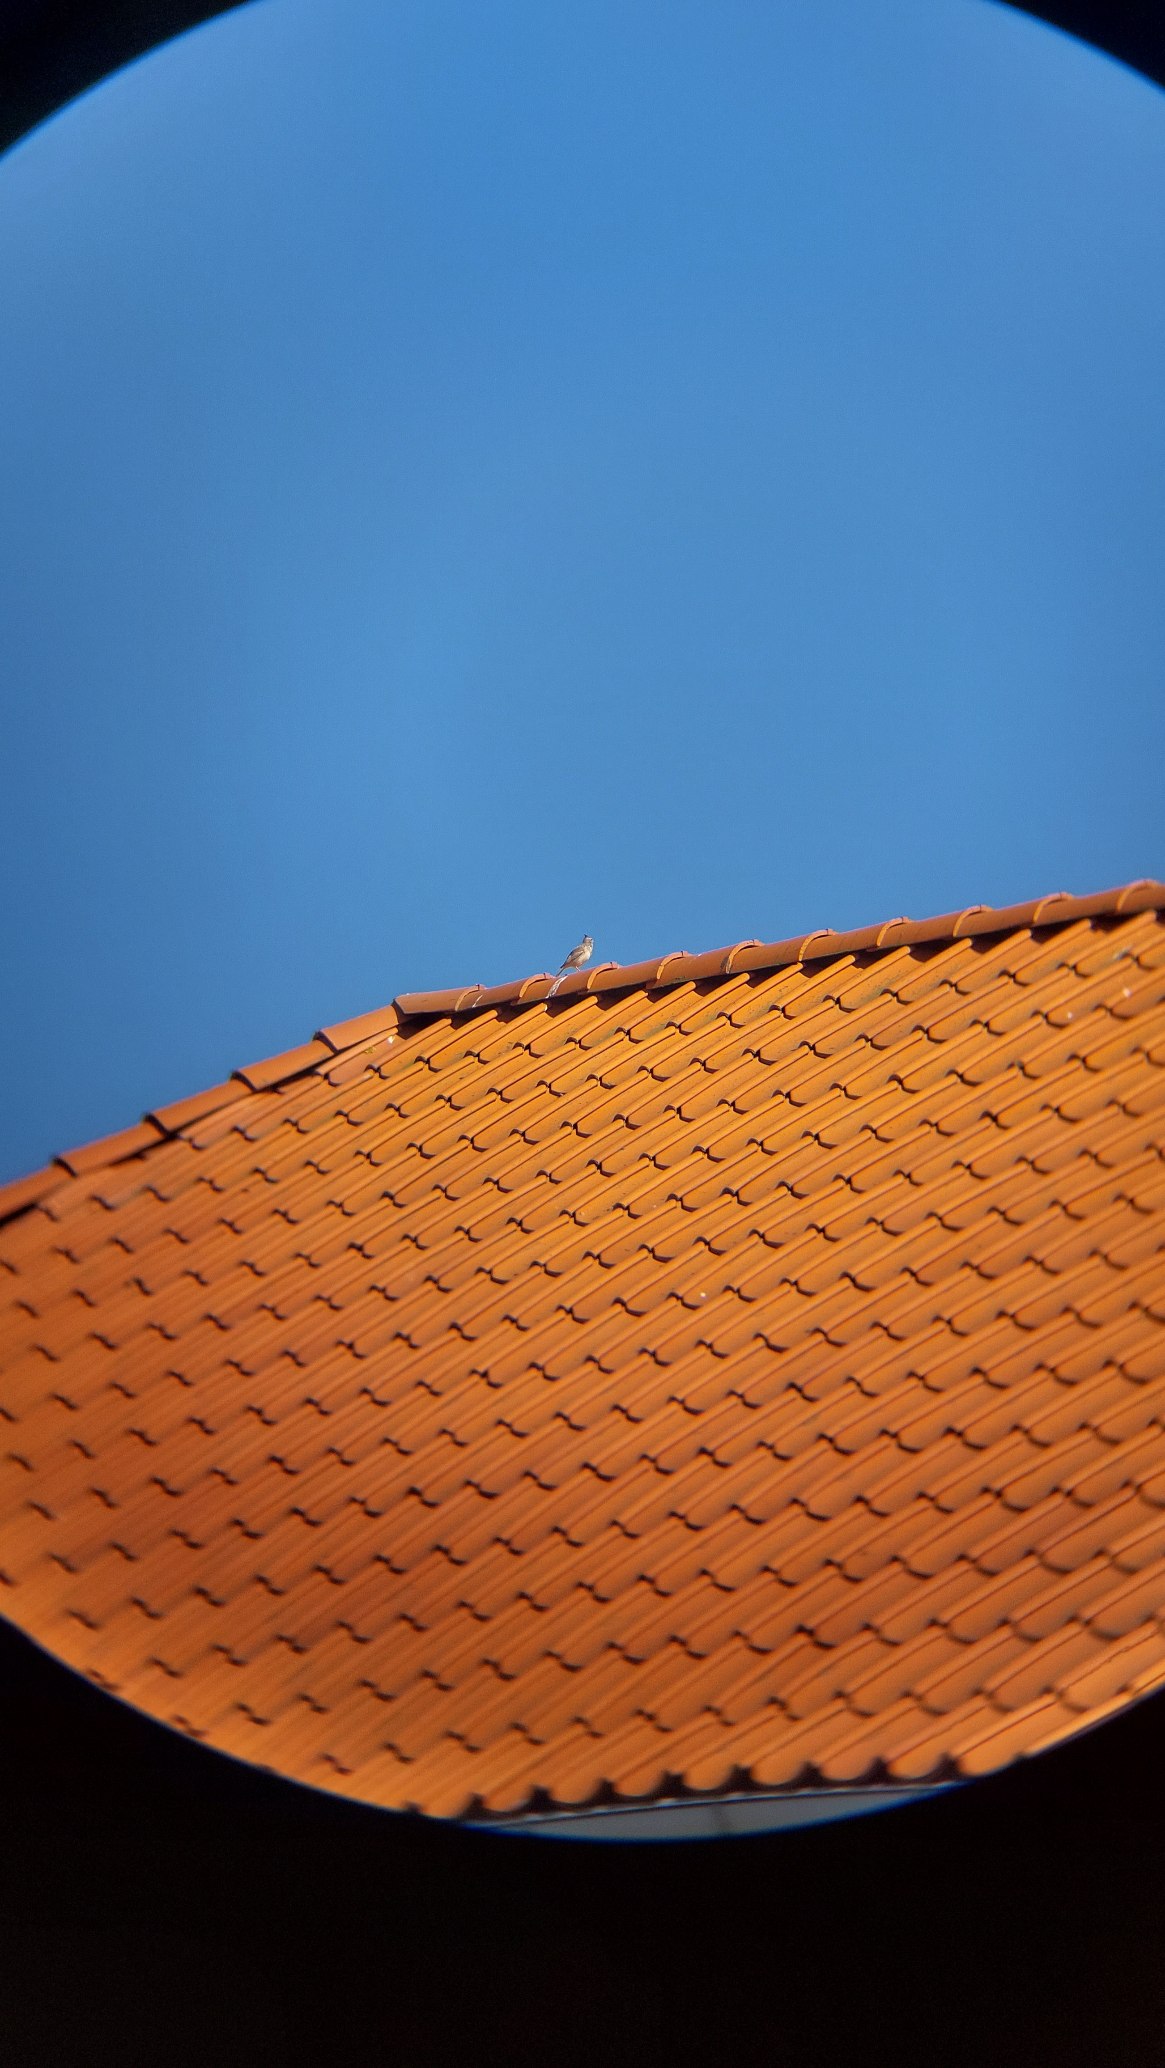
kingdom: Animalia
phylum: Chordata
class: Aves
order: Passeriformes
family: Alaudidae
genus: Galerida
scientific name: Galerida cristata
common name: Toplærke
